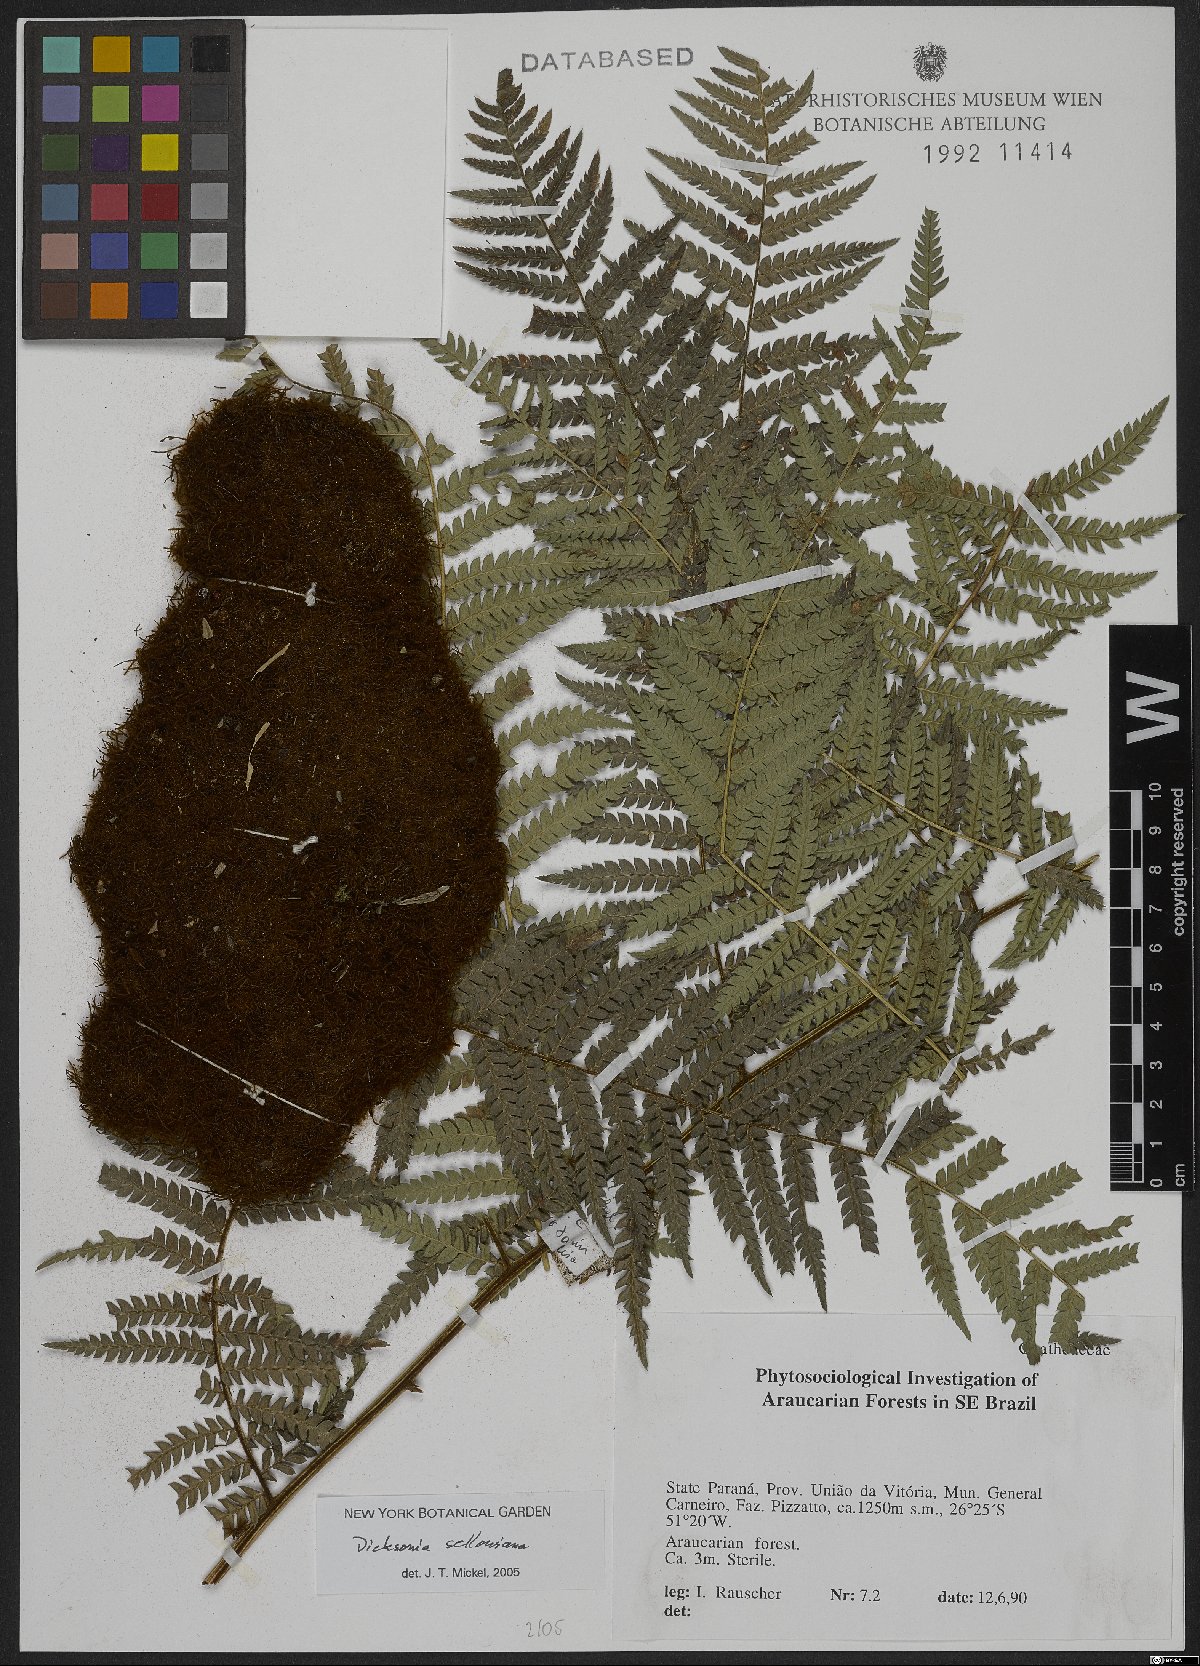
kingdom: Plantae
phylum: Tracheophyta
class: Polypodiopsida
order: Cyatheales
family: Dicksoniaceae
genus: Dicksonia
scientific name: Dicksonia sellowiana
